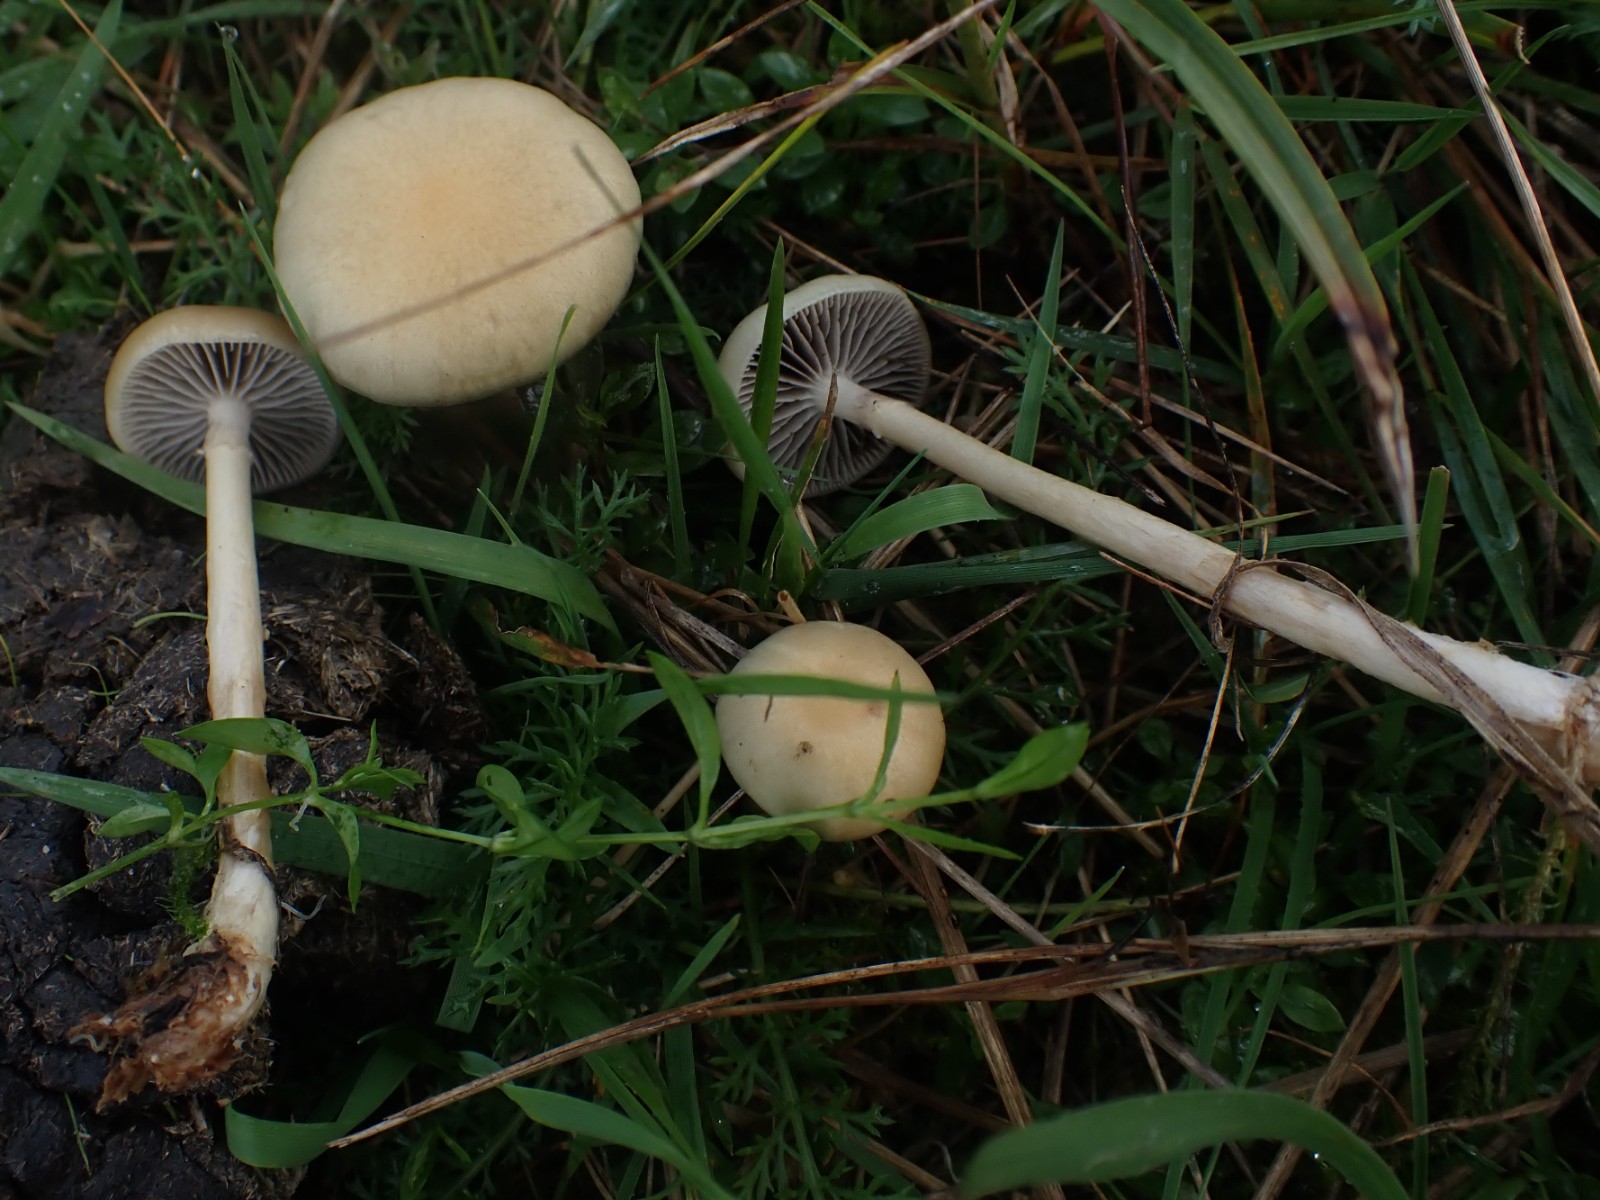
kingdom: Fungi
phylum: Basidiomycota
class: Agaricomycetes
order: Agaricales
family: Strophariaceae
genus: Protostropharia
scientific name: Protostropharia semiglobata
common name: halvkugleformet bredblad
